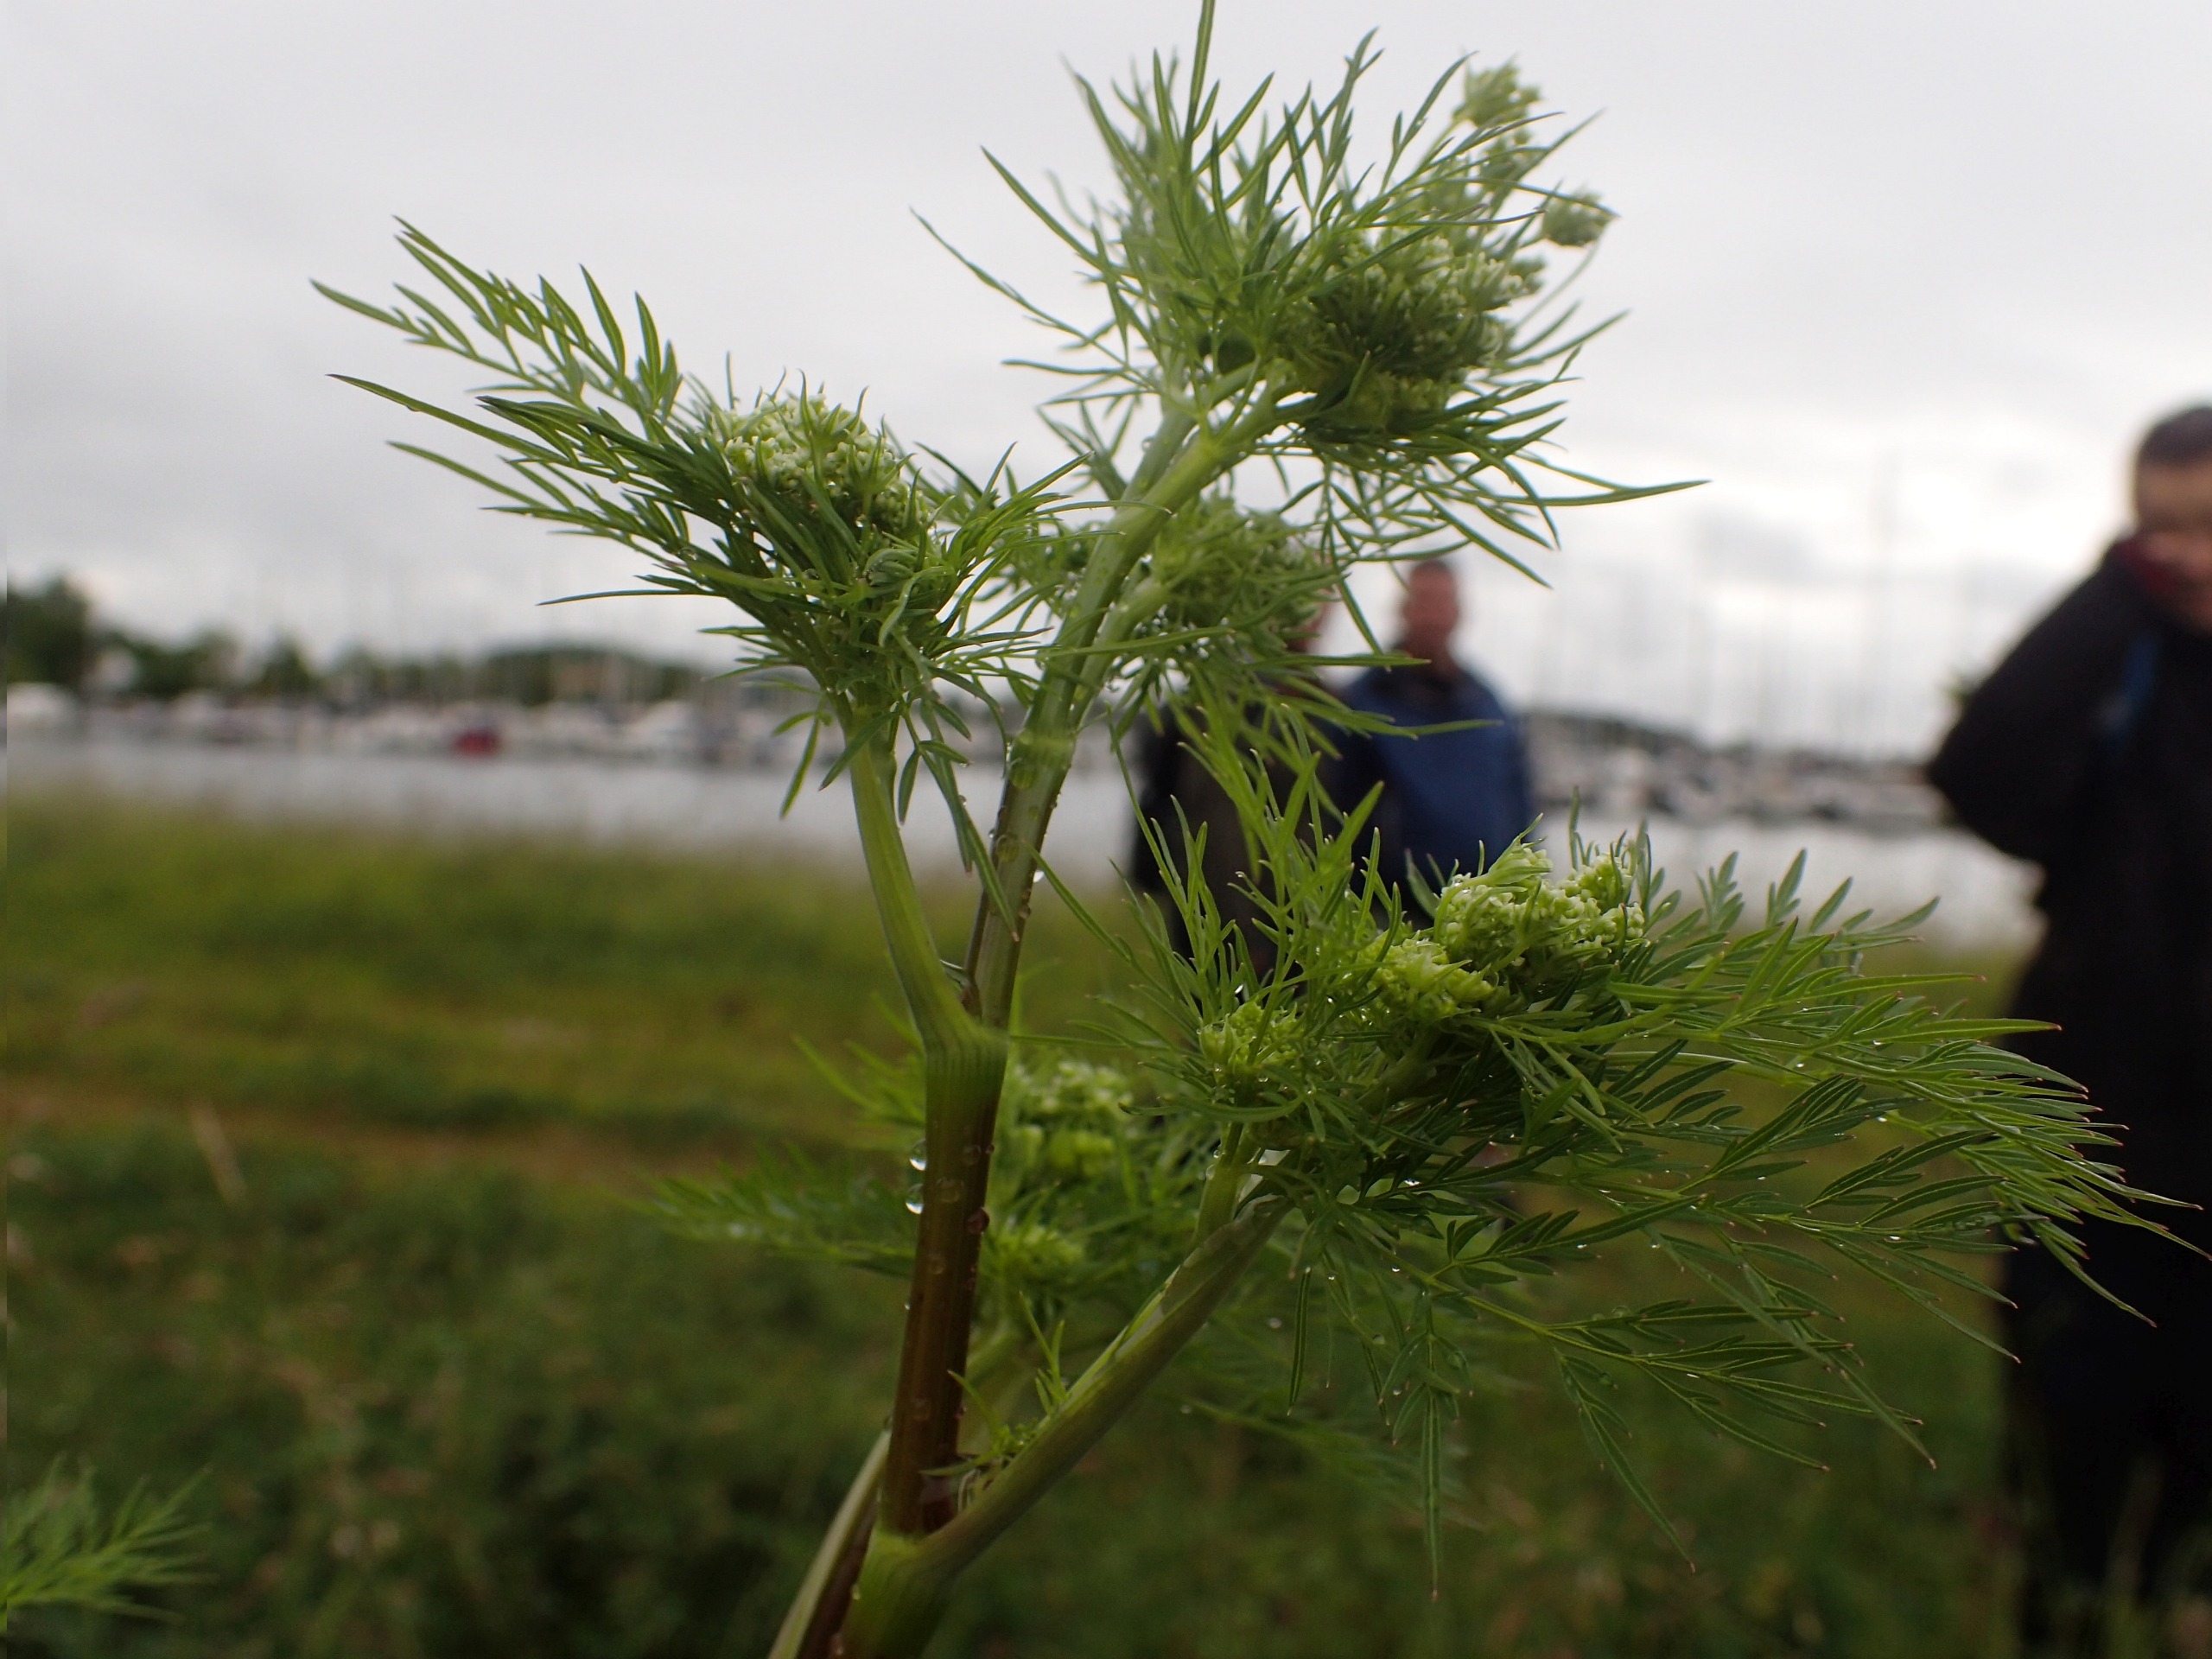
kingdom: Plantae
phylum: Tracheophyta
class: Magnoliopsida
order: Apiales
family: Apiaceae
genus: Aethusa
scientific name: Aethusa cynapium
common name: Stor hundepersille
